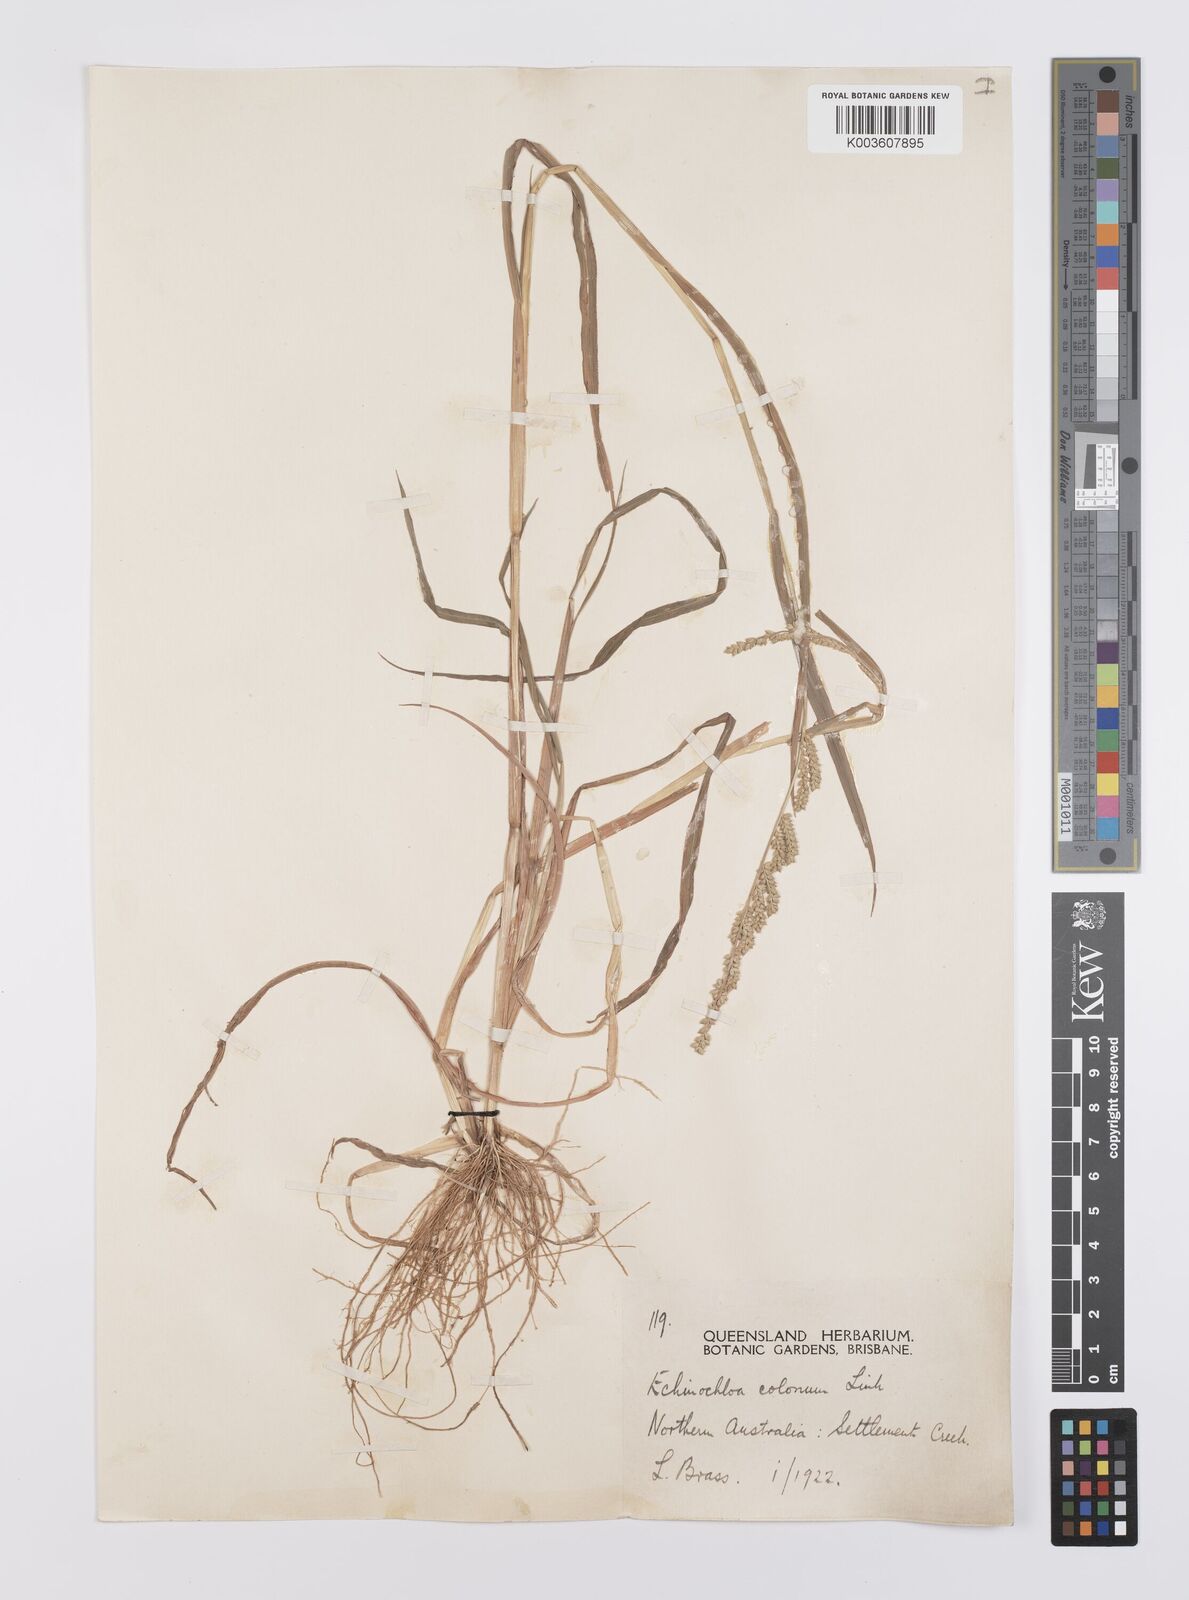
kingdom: Plantae
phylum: Tracheophyta
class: Liliopsida
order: Poales
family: Poaceae
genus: Echinochloa
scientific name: Echinochloa colonum
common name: Jungle rice
